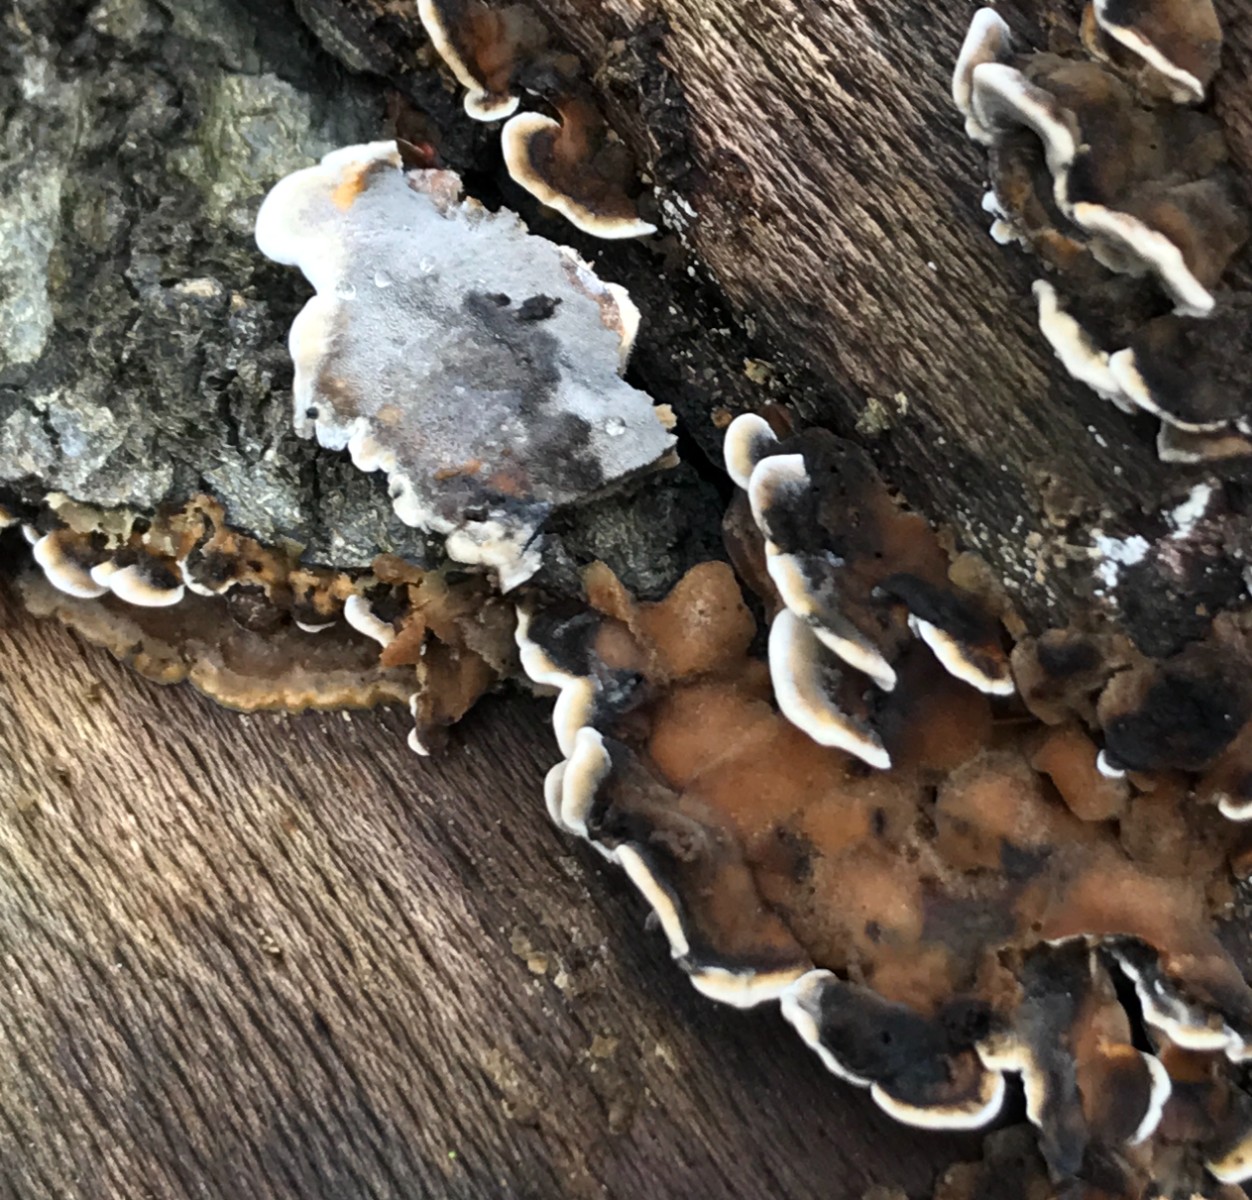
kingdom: Fungi
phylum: Basidiomycota
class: Agaricomycetes
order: Polyporales
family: Phanerochaetaceae
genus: Bjerkandera
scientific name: Bjerkandera adusta
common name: sveden sodporesvamp
